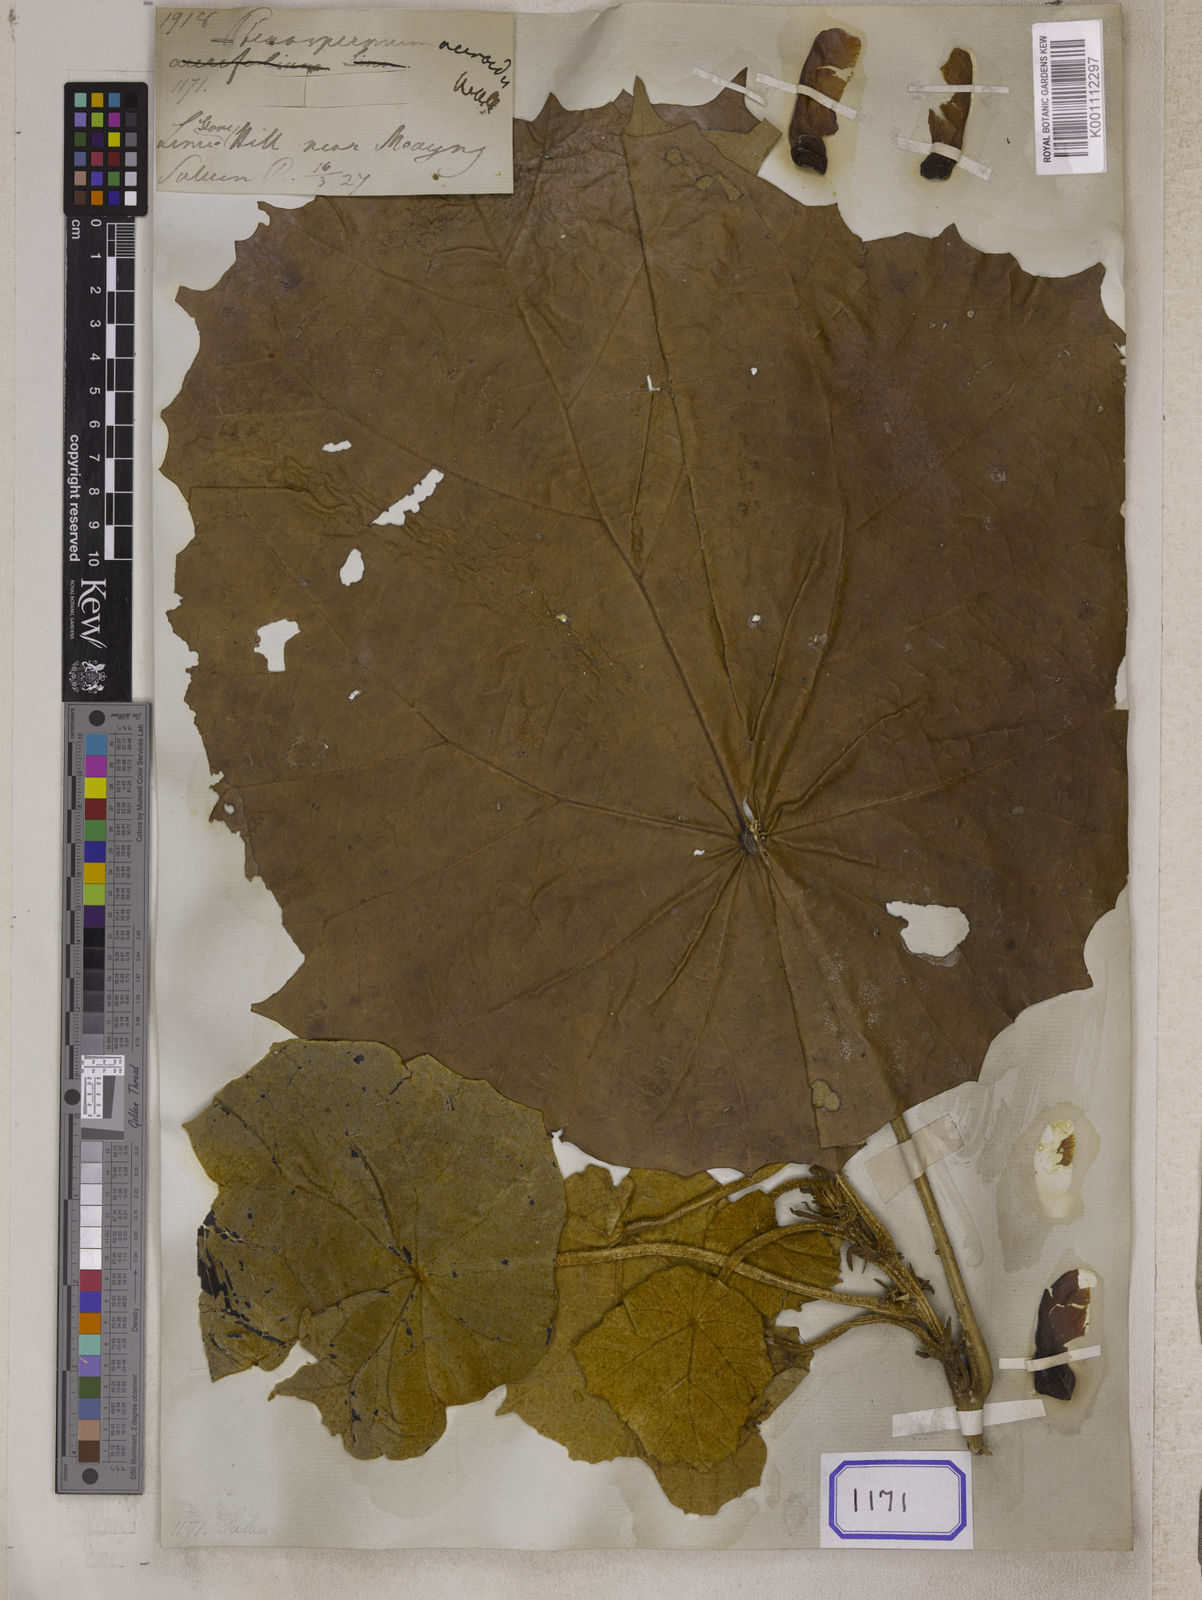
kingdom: Plantae
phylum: Tracheophyta
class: Magnoliopsida
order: Malvales
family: Malvaceae
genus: Pterospermum
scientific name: Pterospermum
